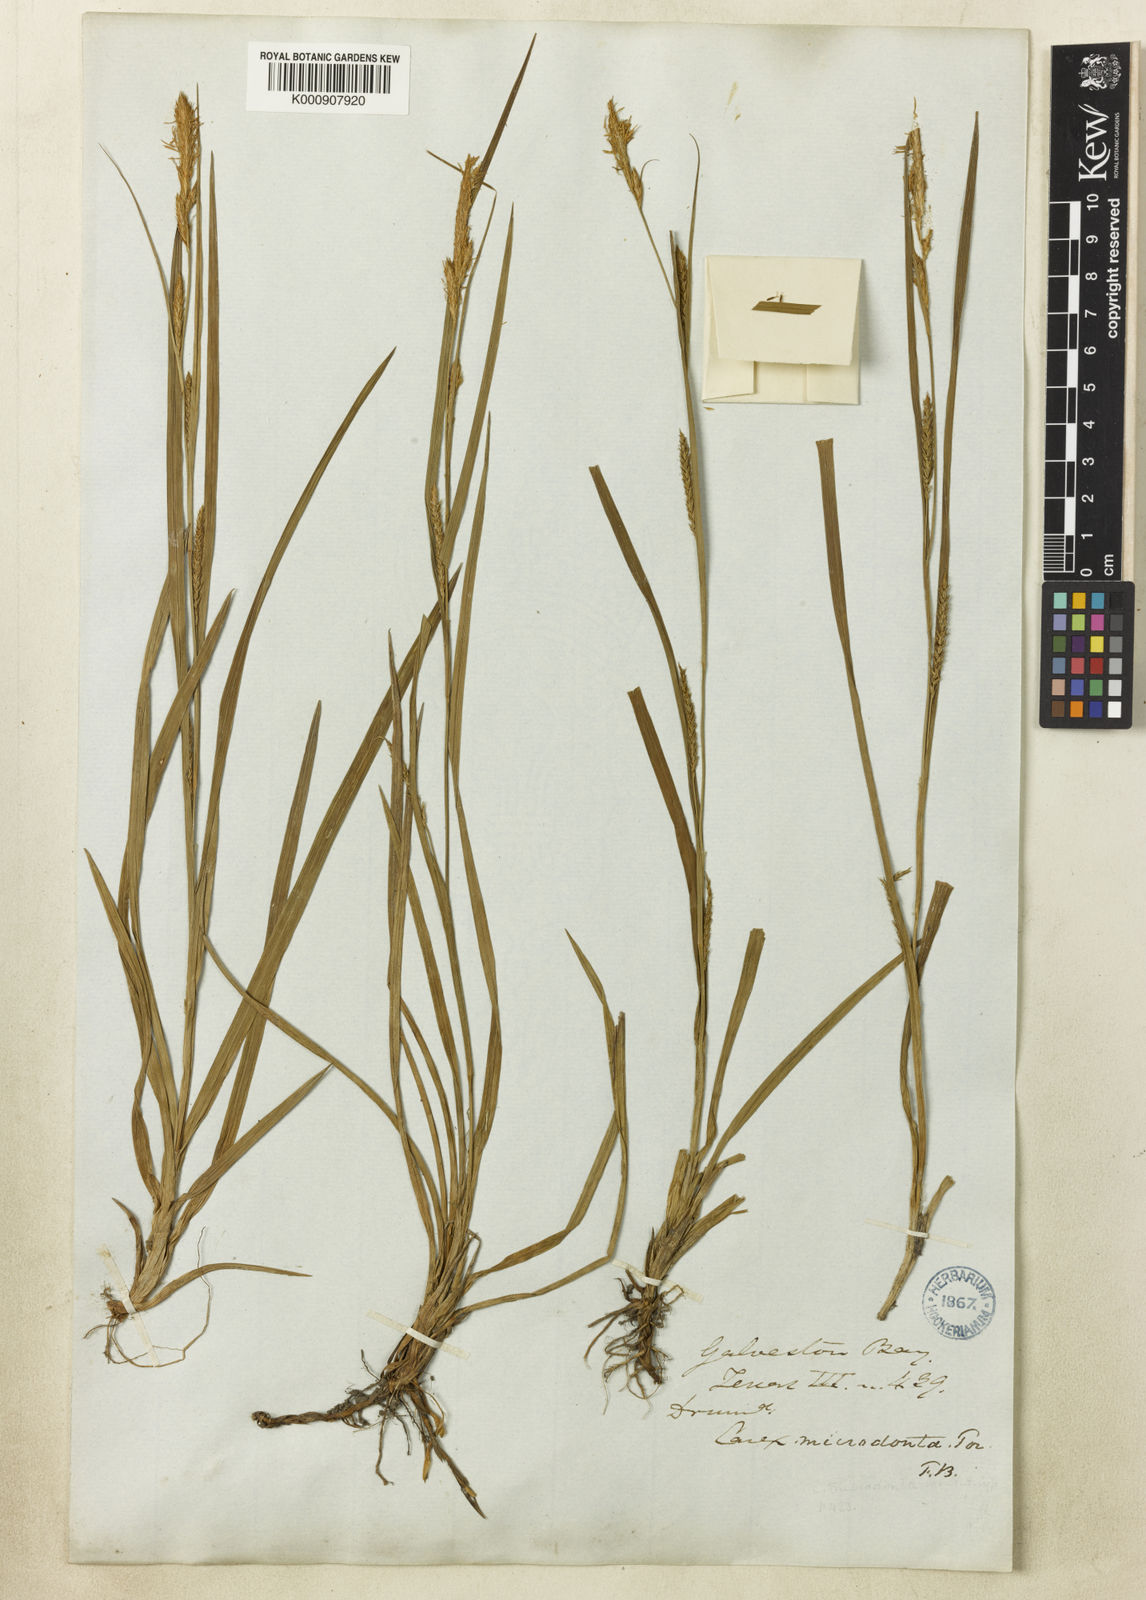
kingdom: Plantae
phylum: Tracheophyta
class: Liliopsida
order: Poales
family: Cyperaceae
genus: Carex
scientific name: Carex microdonta
